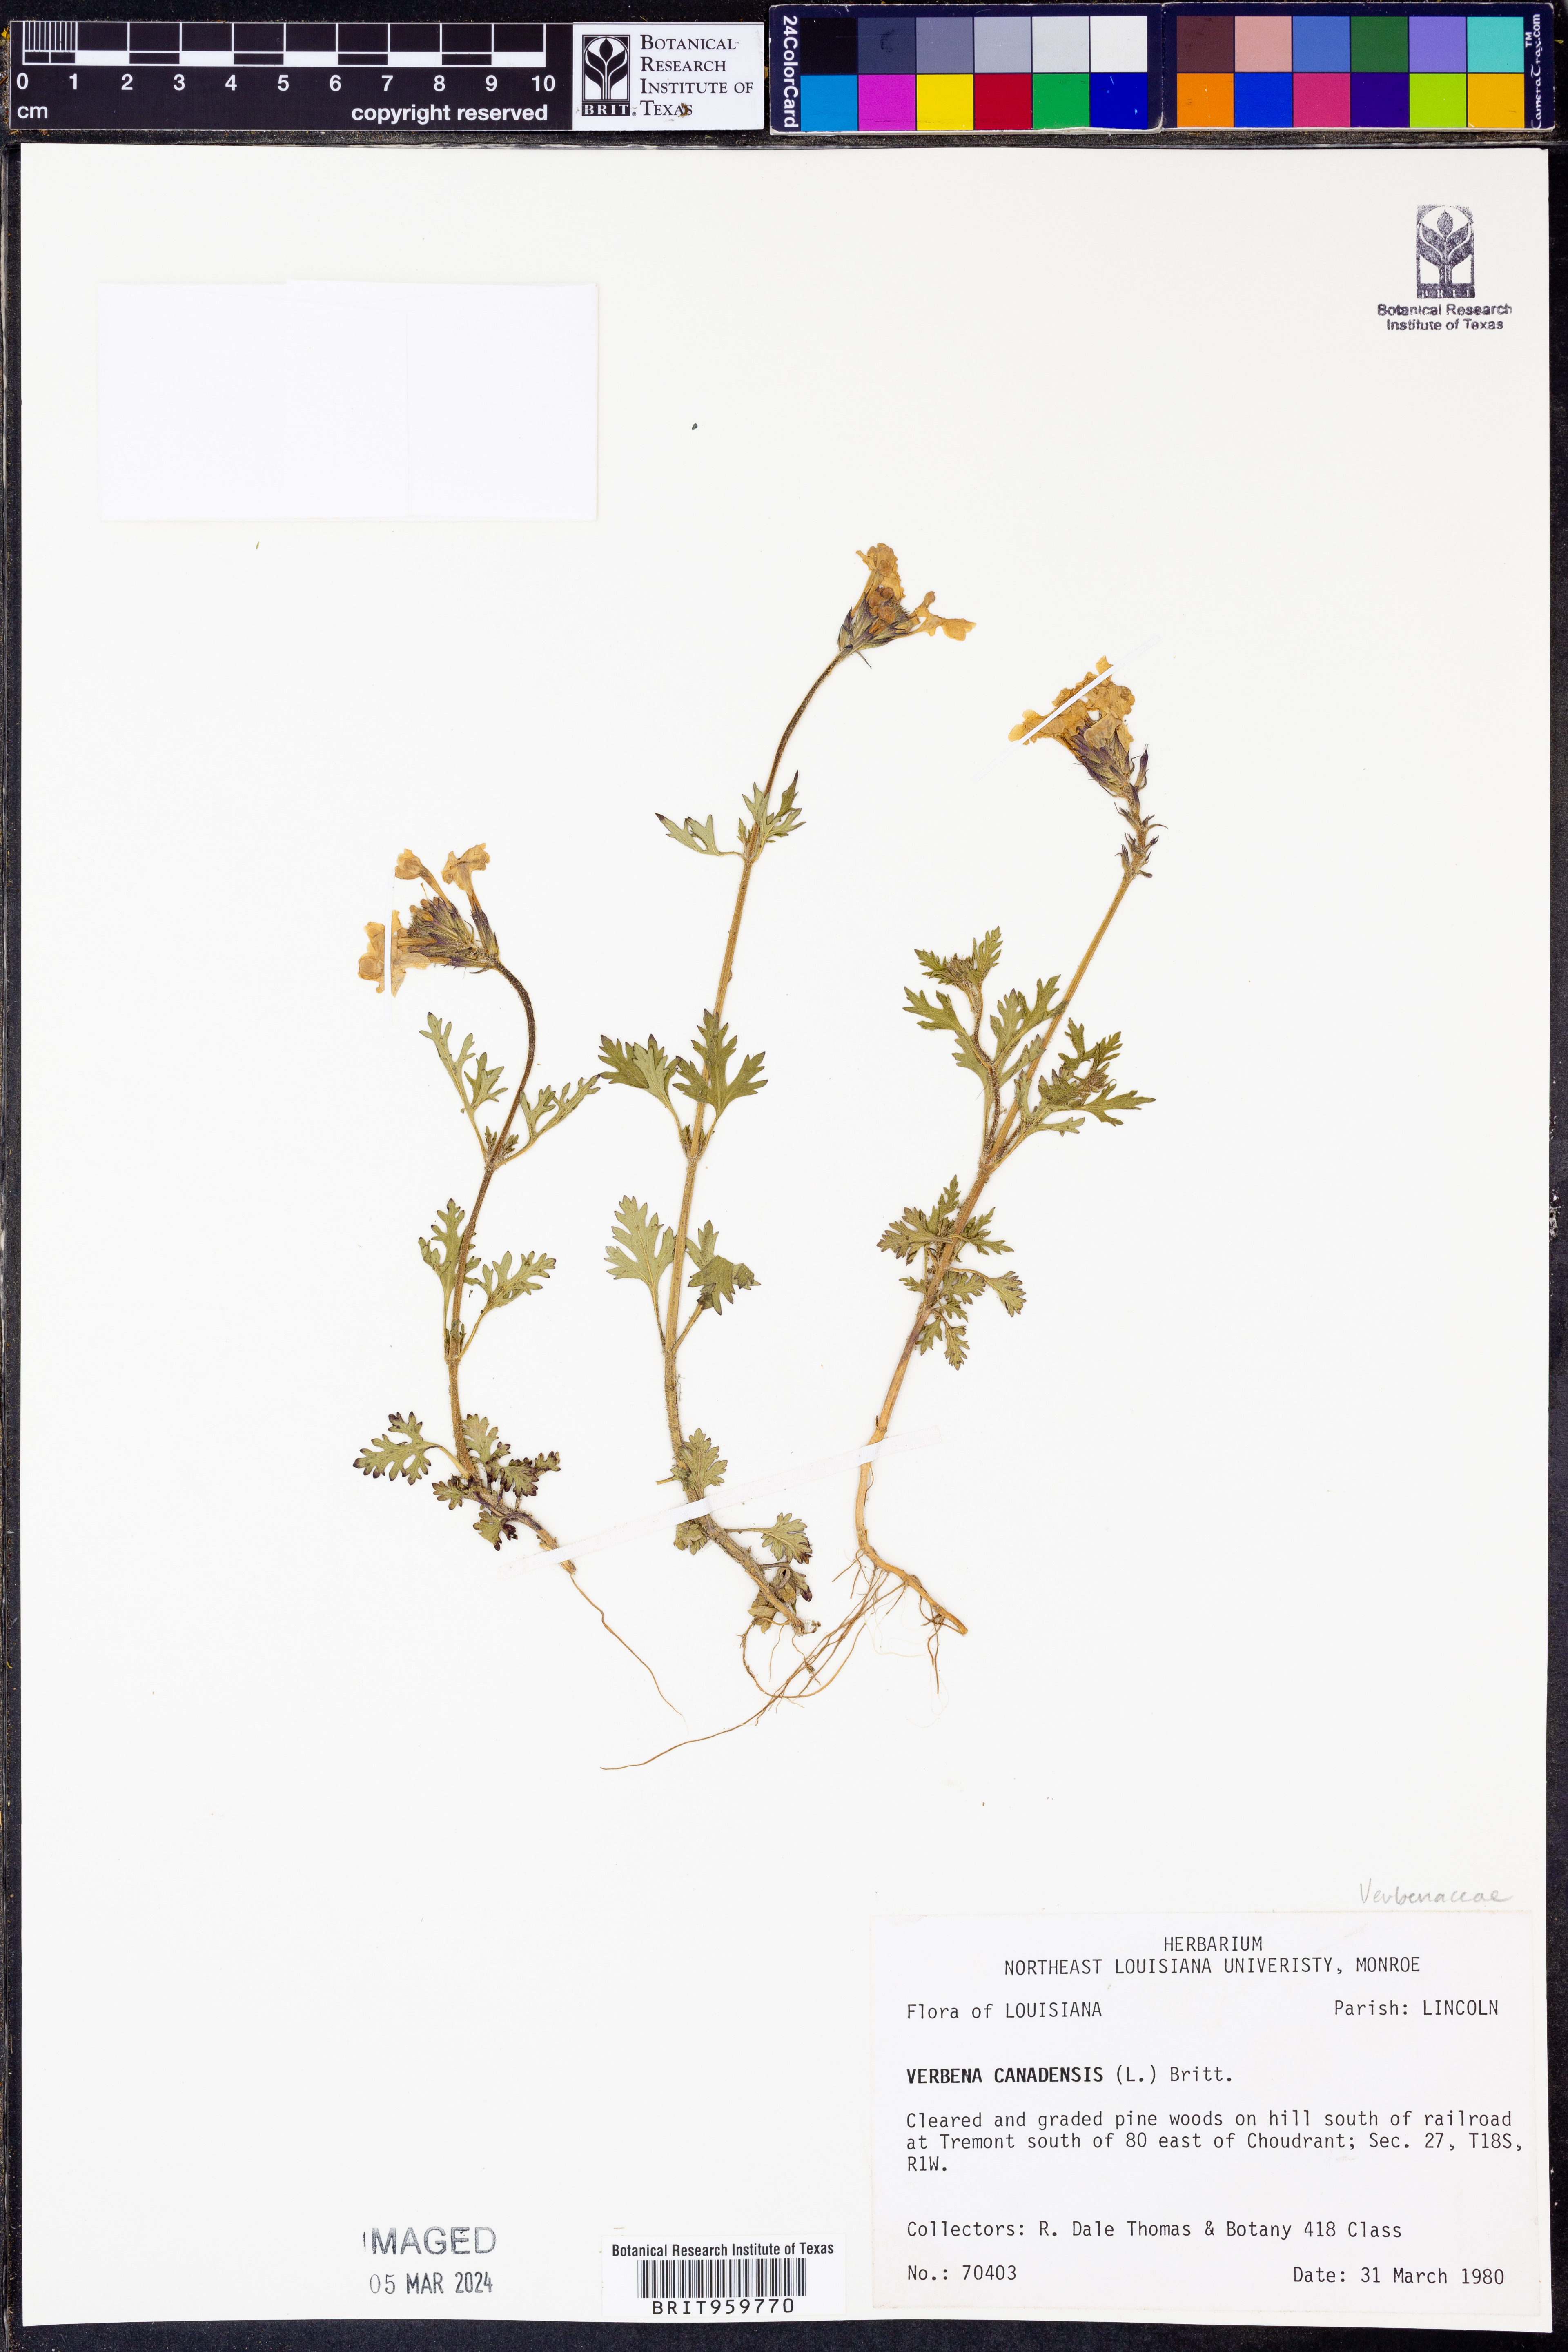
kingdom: Plantae
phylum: Tracheophyta
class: Magnoliopsida
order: Lamiales
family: Verbenaceae
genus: Verbena
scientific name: Verbena canadensis
